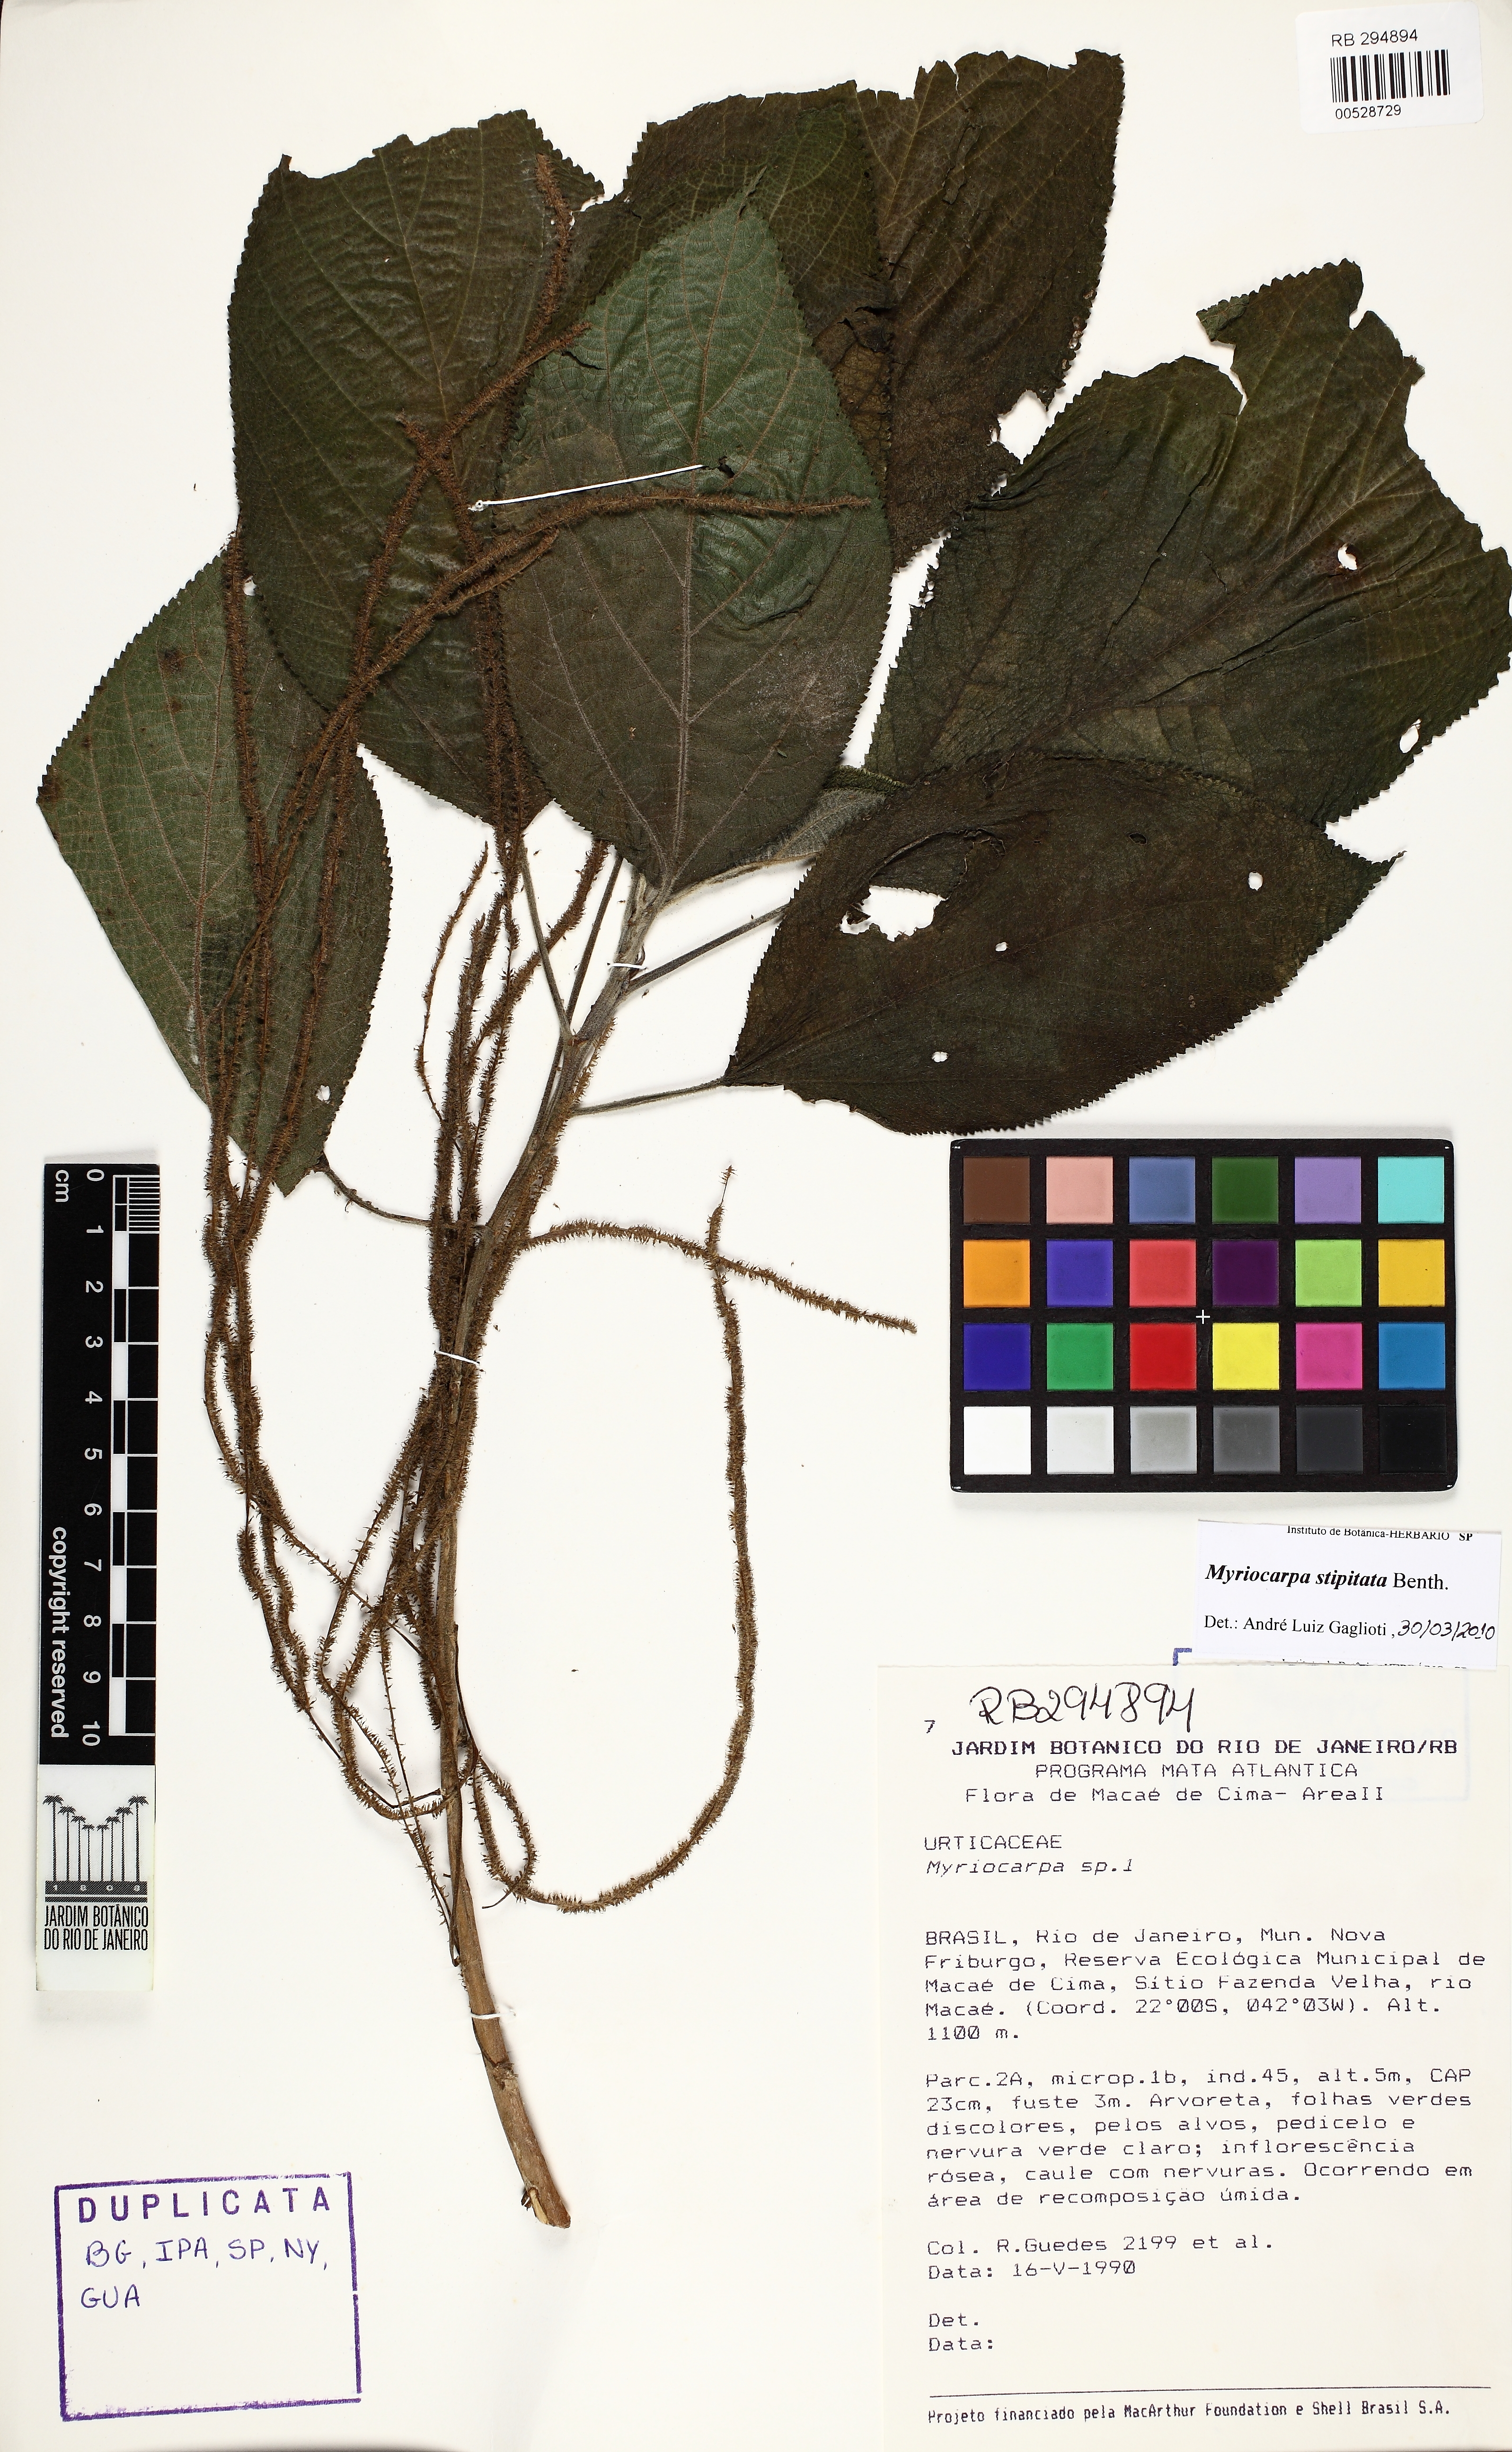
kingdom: Plantae
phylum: Tracheophyta
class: Magnoliopsida
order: Rosales
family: Urticaceae
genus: Myriocarpa
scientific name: Myriocarpa stipitata
